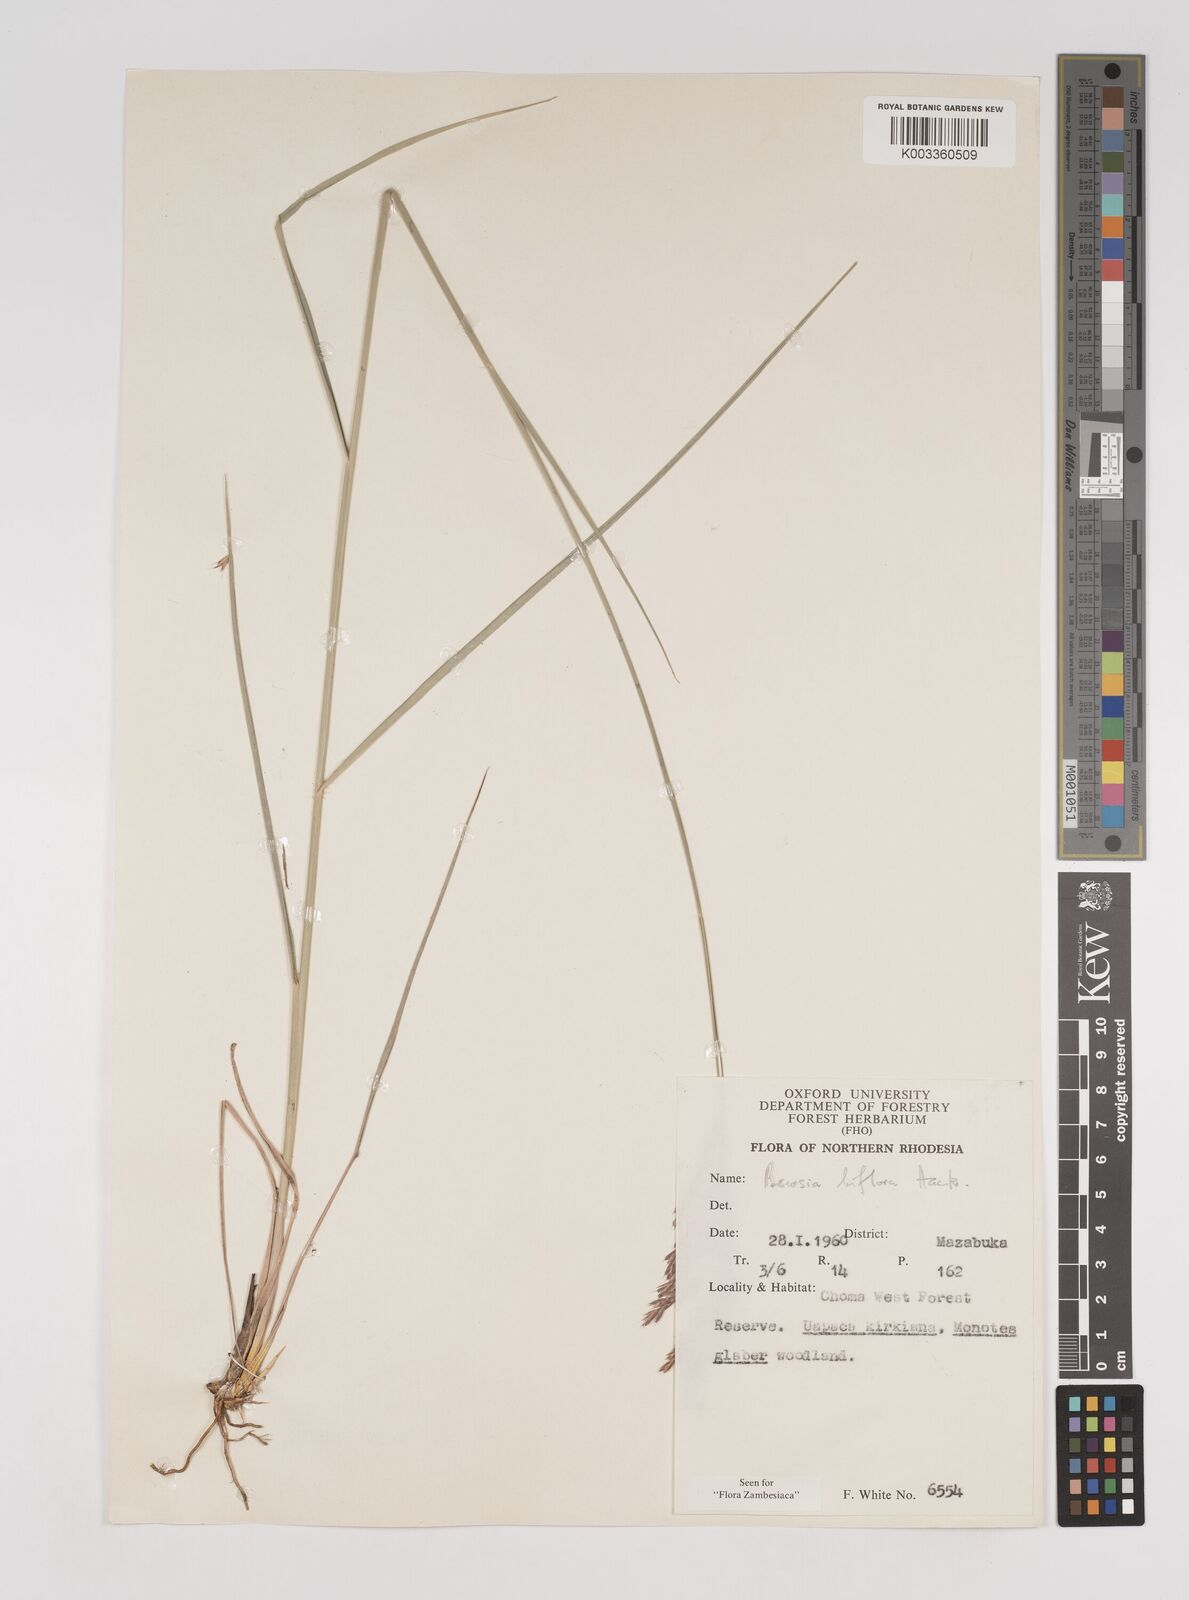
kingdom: Plantae
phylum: Tracheophyta
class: Liliopsida
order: Poales
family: Poaceae
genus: Bewsia
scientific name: Bewsia biflora
